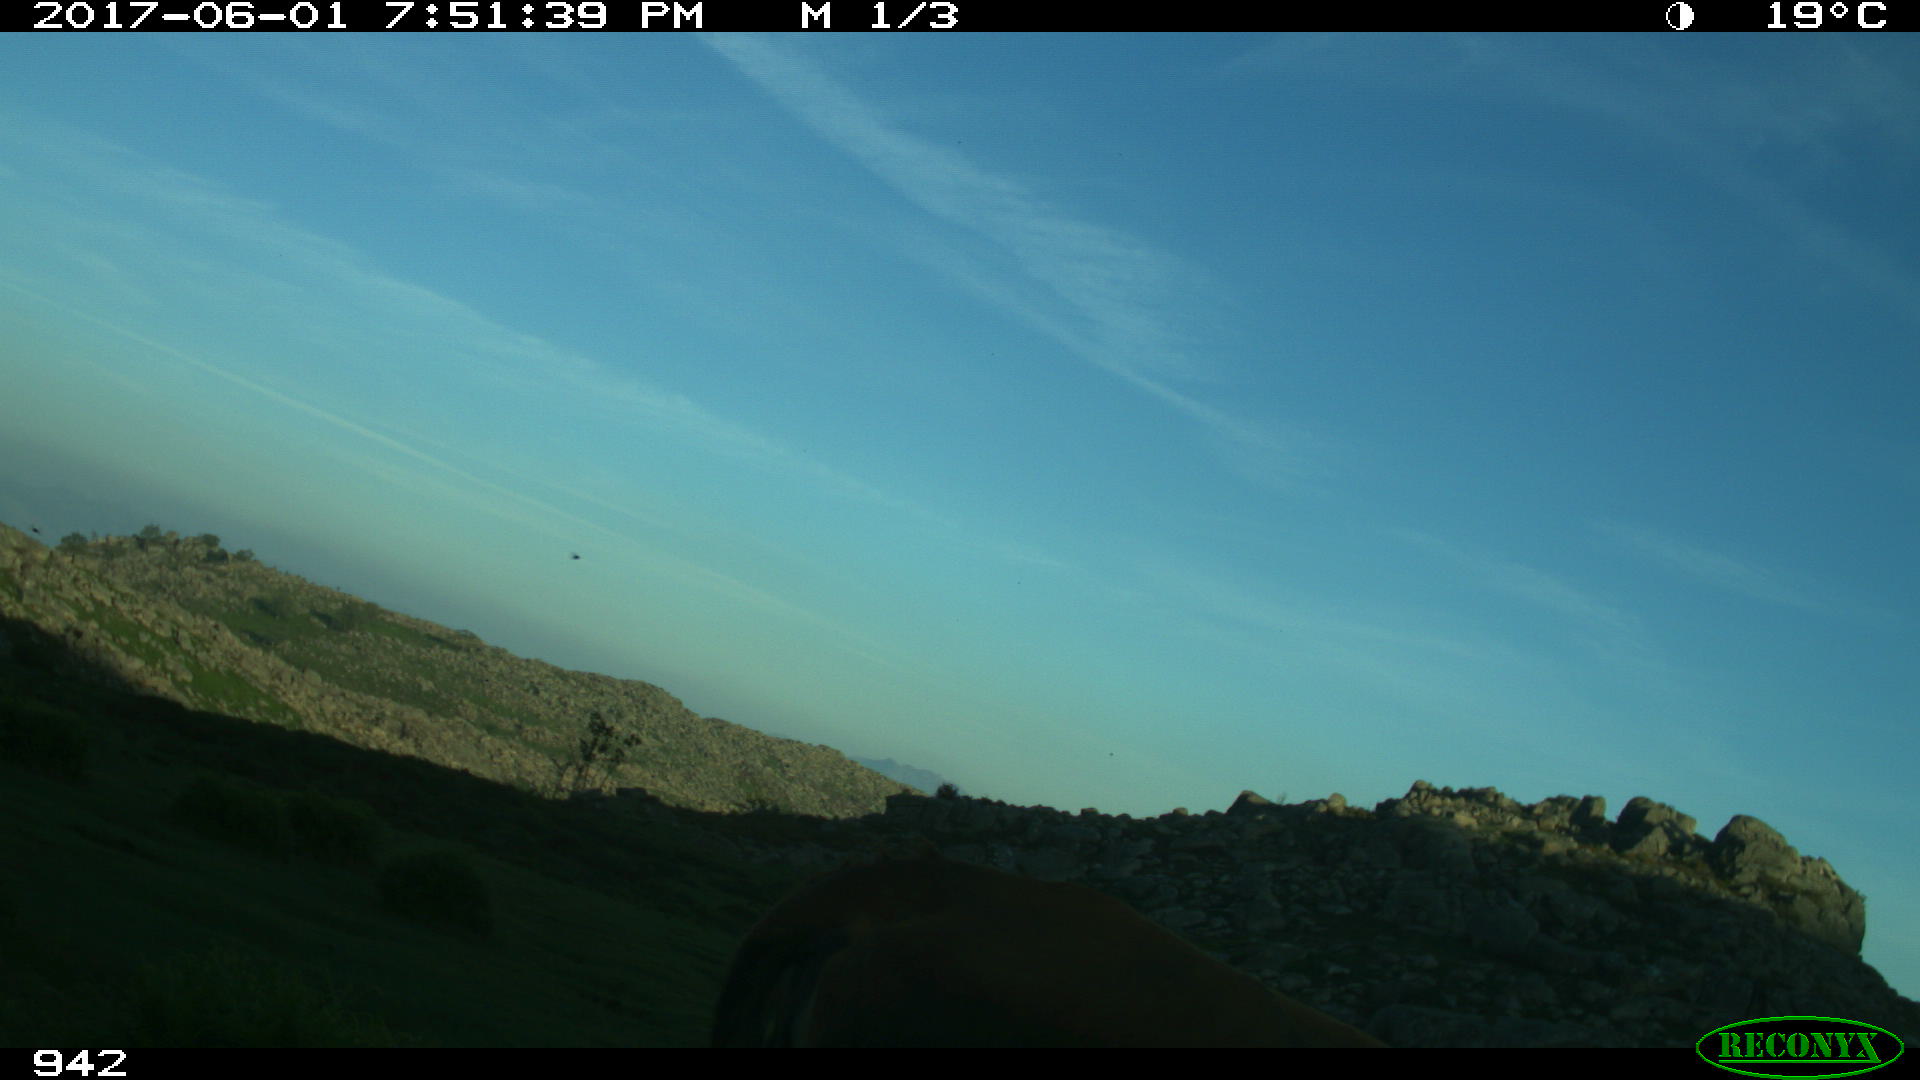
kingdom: Animalia
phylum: Chordata
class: Mammalia
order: Artiodactyla
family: Bovidae
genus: Bos
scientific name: Bos taurus
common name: Domesticated cattle
